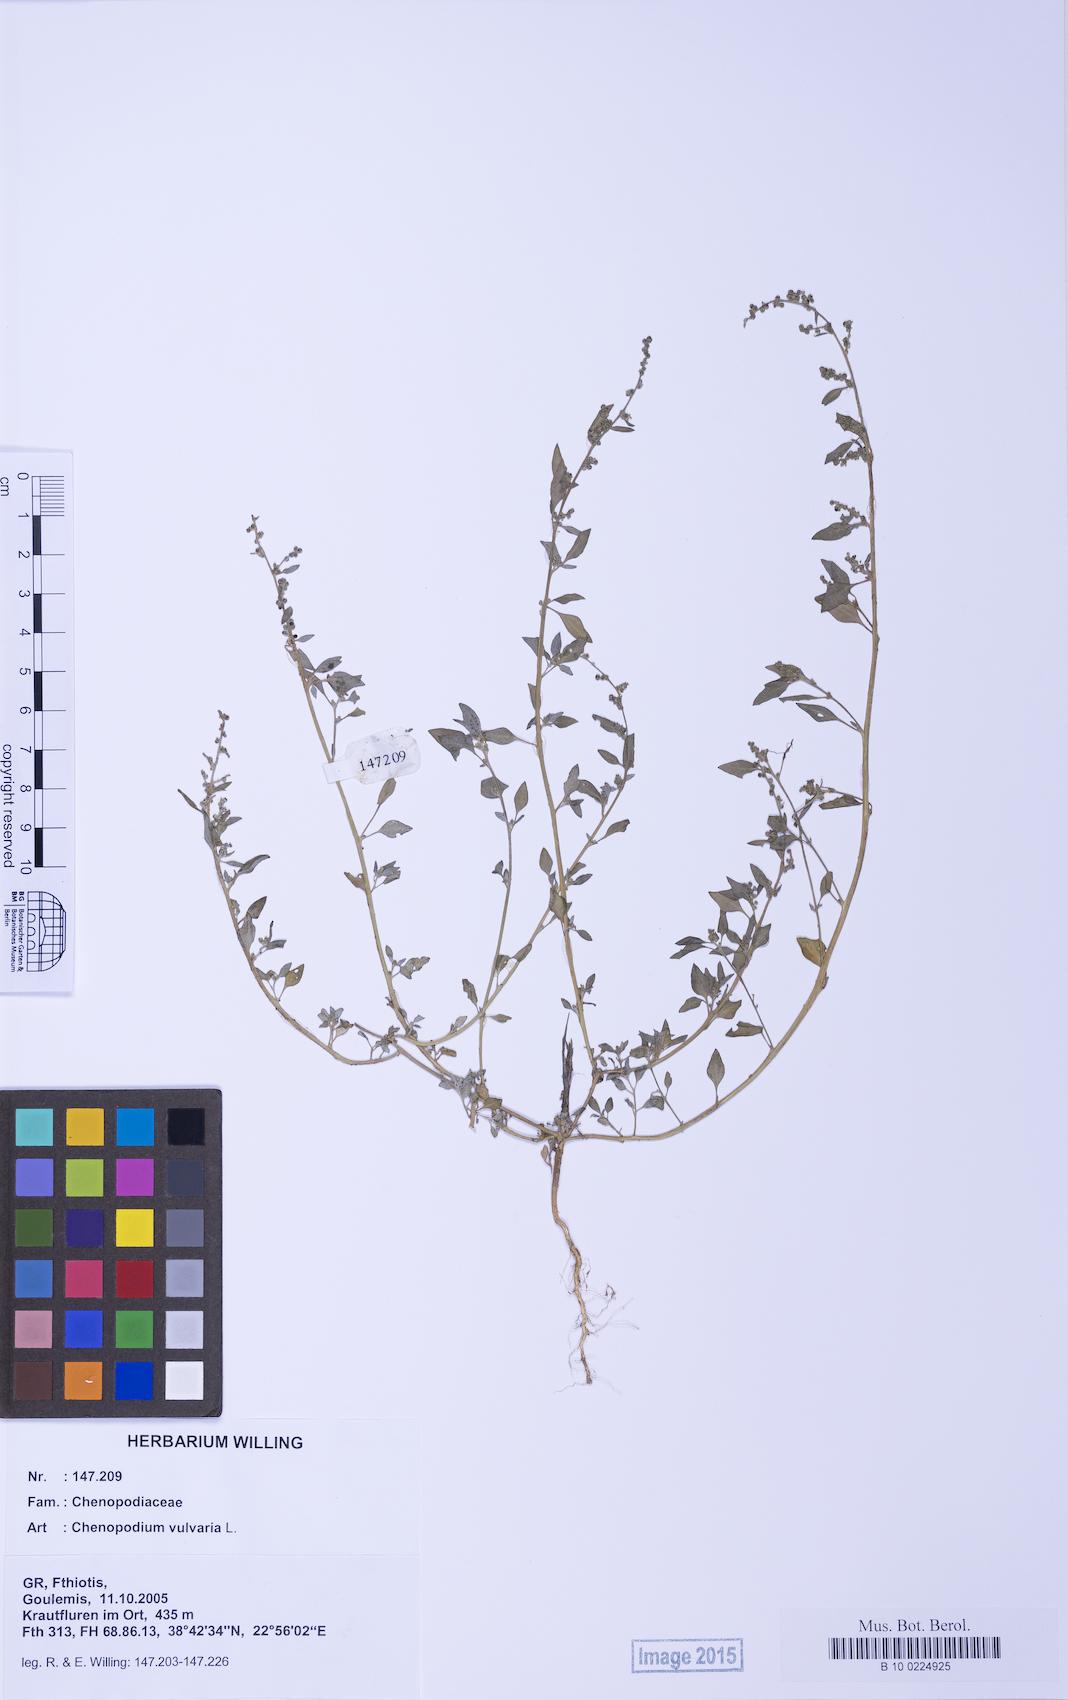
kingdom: Plantae
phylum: Tracheophyta
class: Magnoliopsida
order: Caryophyllales
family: Amaranthaceae
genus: Chenopodium
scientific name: Chenopodium vulvaria
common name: Stinking goosefoot
